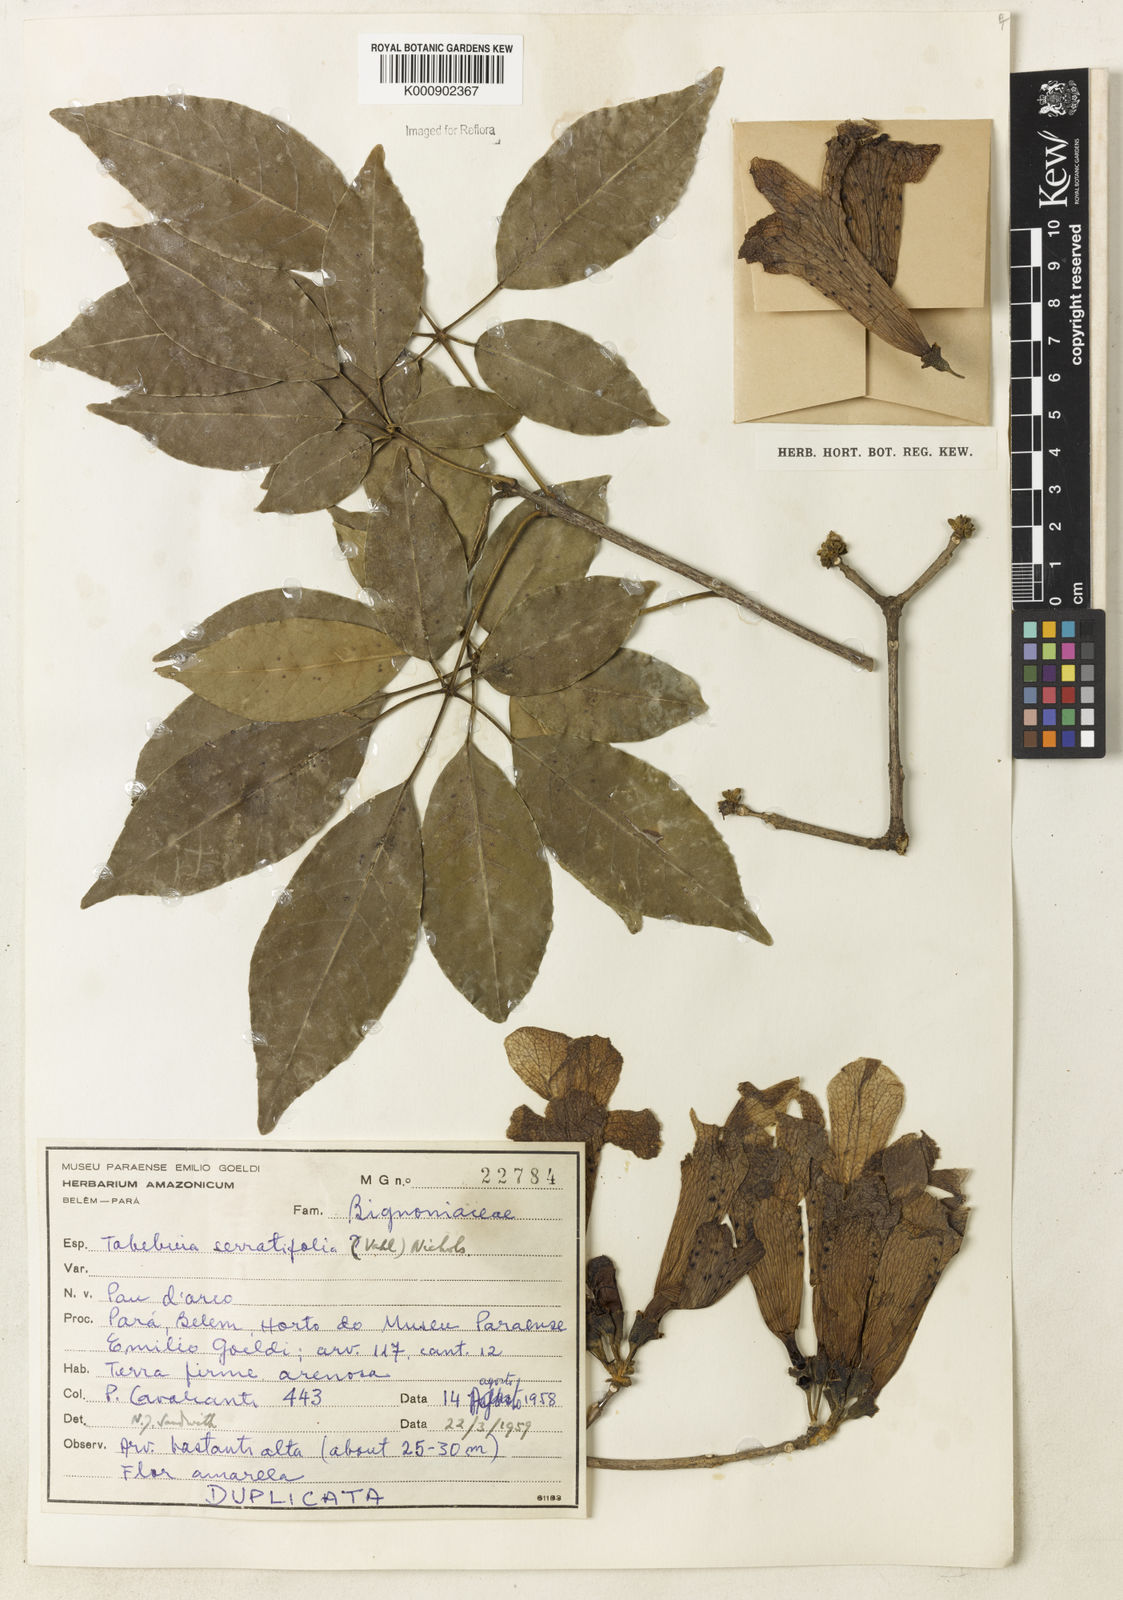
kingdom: Plantae
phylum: Tracheophyta
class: Magnoliopsida
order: Lamiales
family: Bignoniaceae
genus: Handroanthus
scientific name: Handroanthus serratifolius
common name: Yellow ipe
